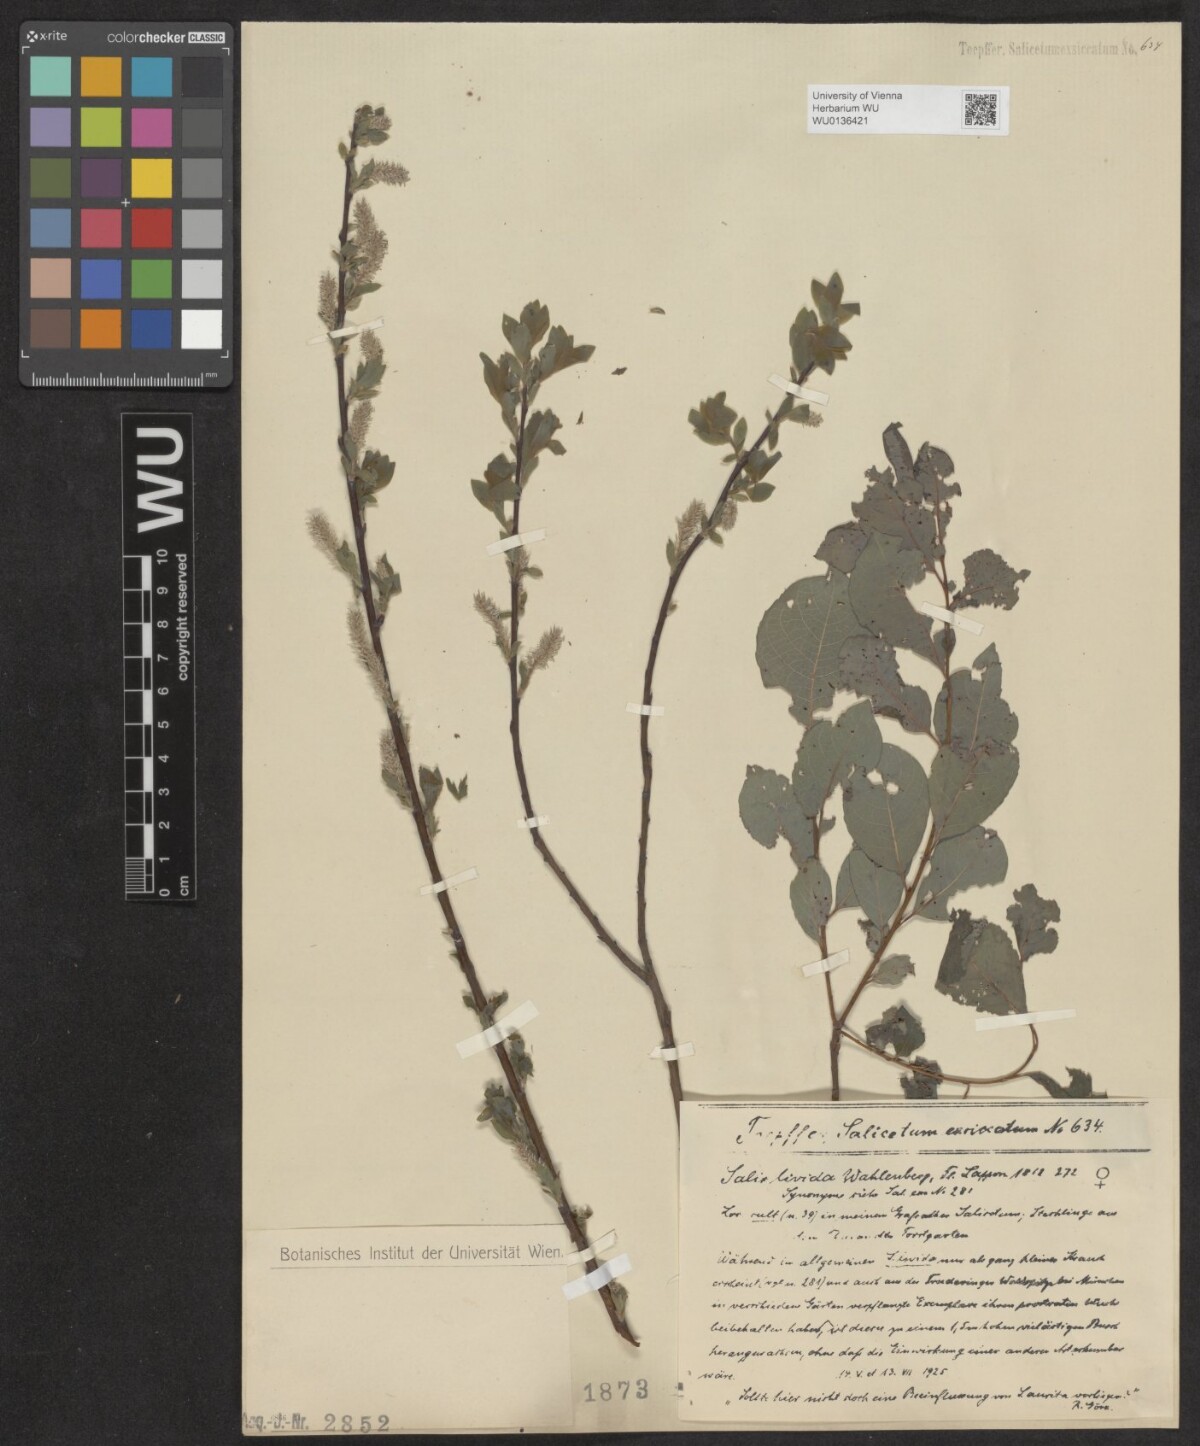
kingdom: Plantae
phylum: Tracheophyta
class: Magnoliopsida
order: Malpighiales
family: Salicaceae
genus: Salix
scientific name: Salix lanata
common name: Woolly willow
